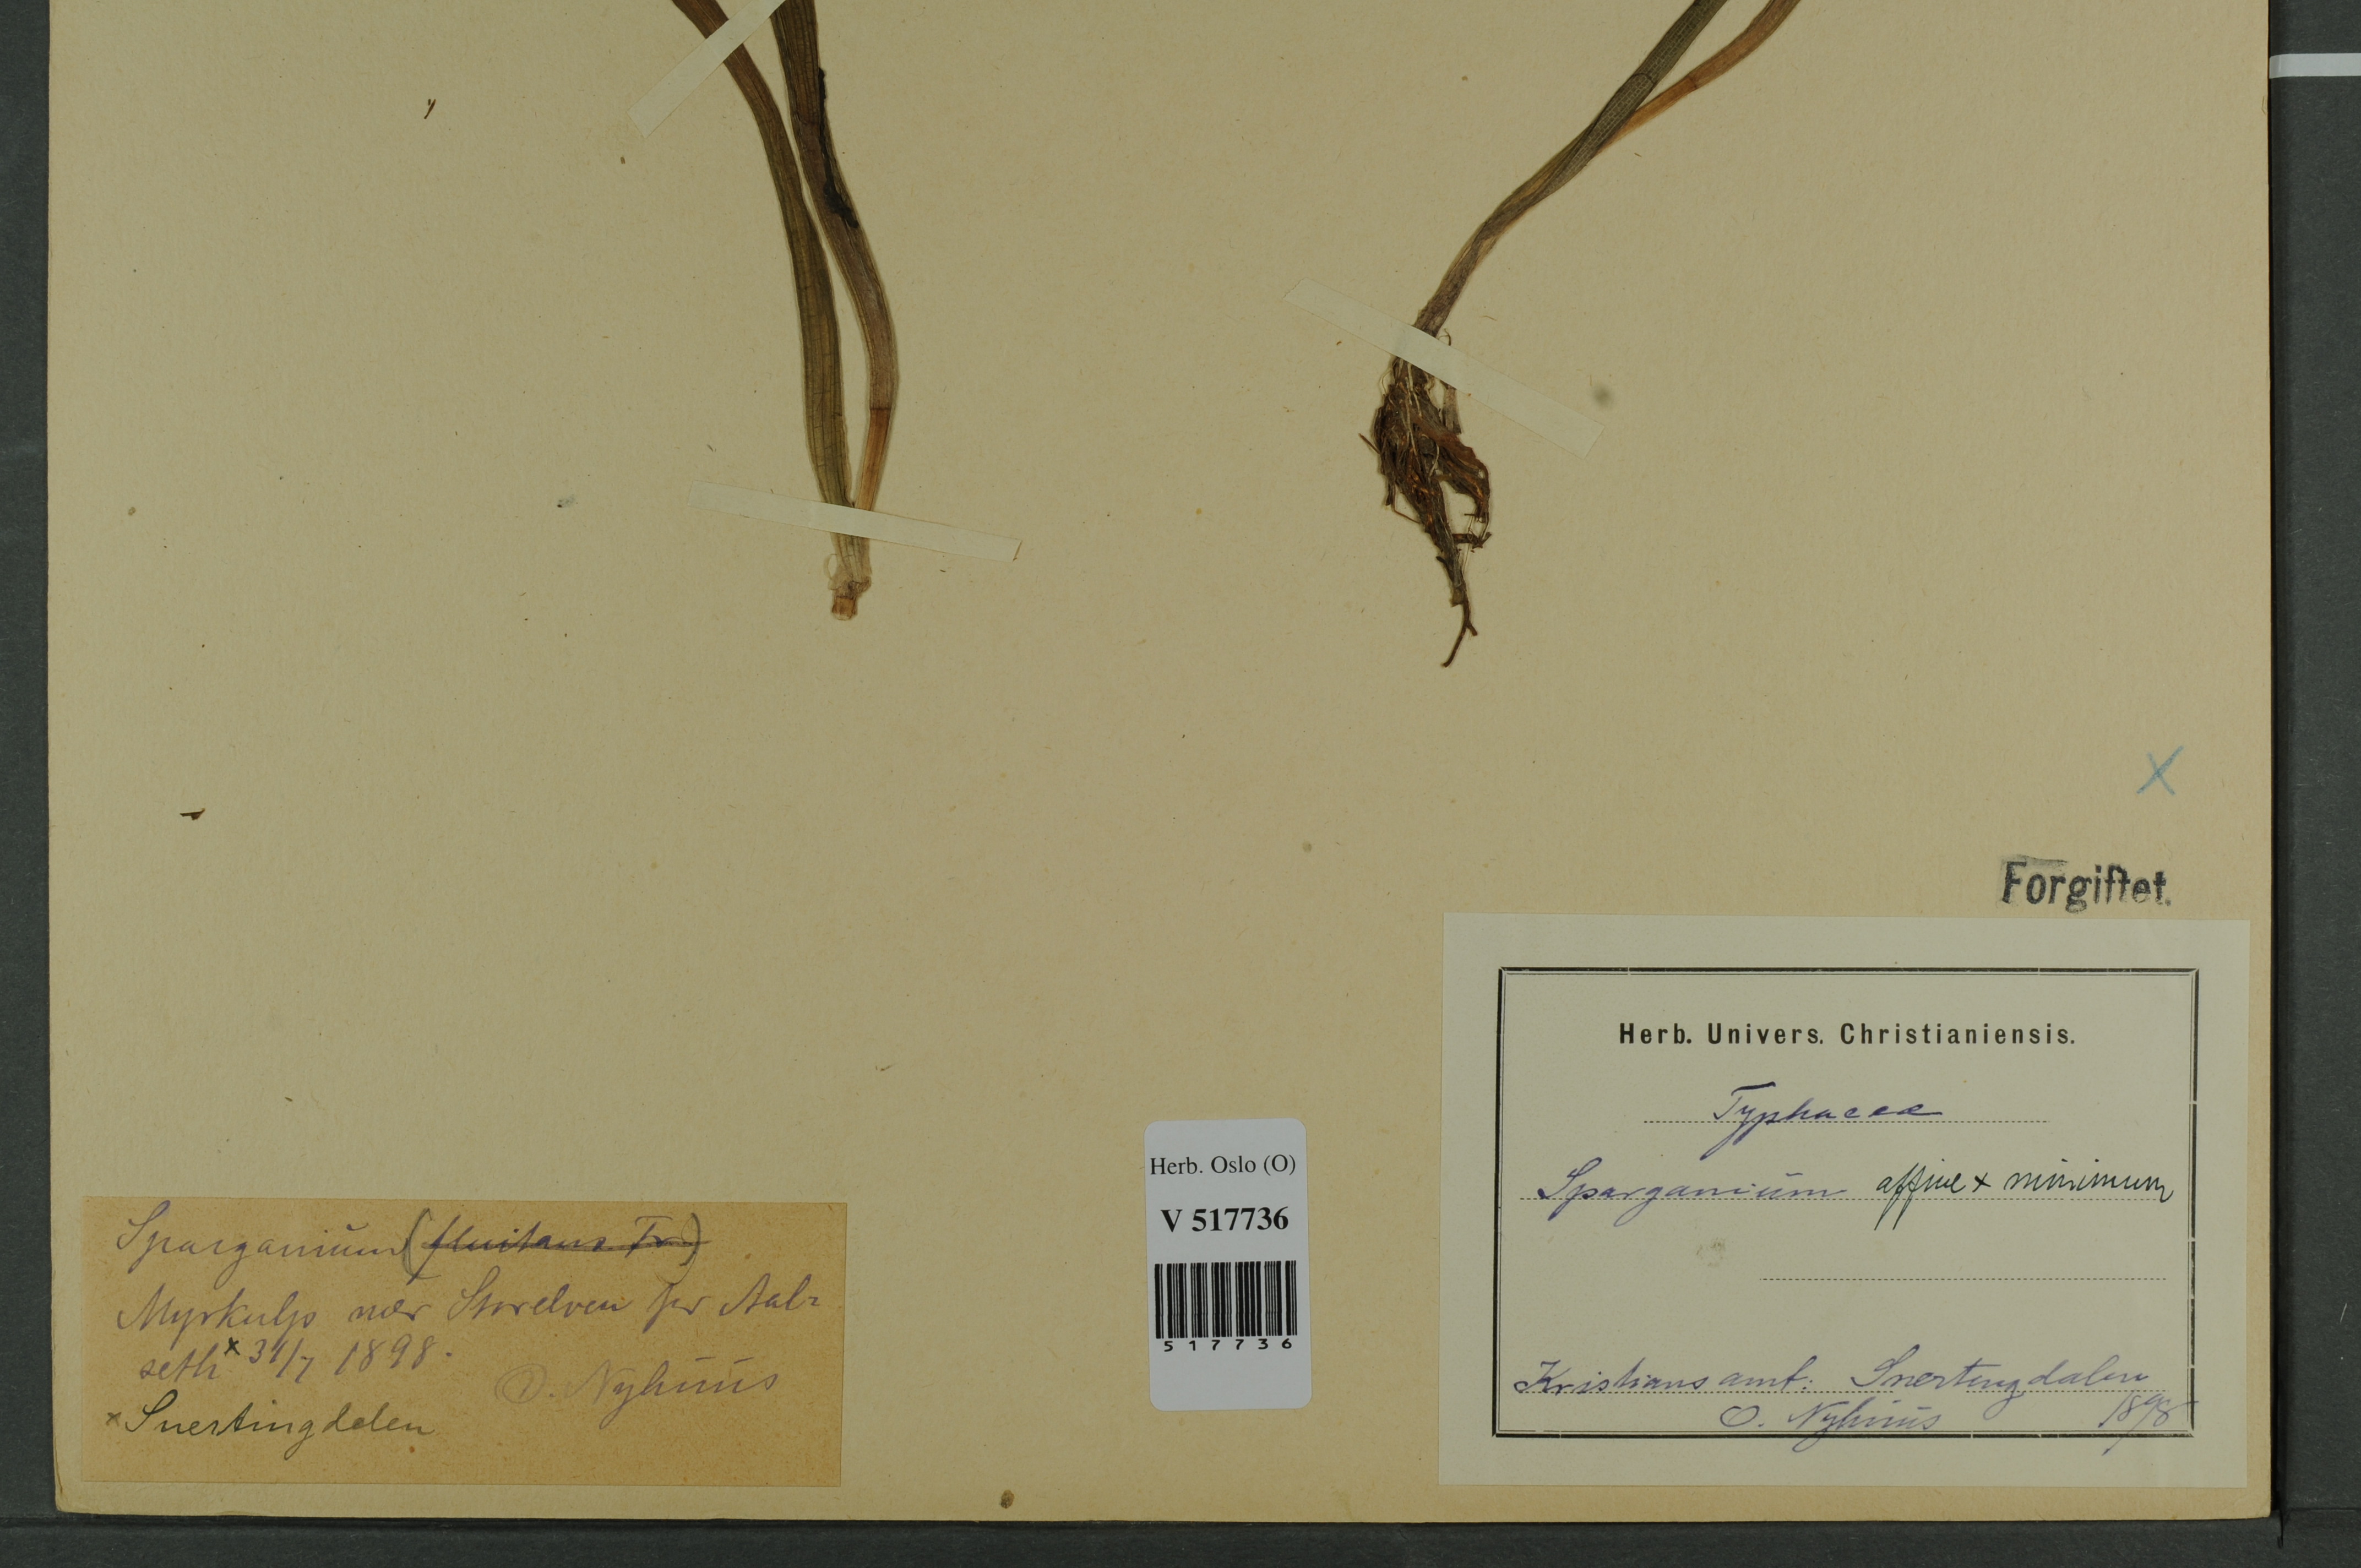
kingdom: Plantae
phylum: Tracheophyta
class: Liliopsida
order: Poales
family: Typhaceae
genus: Sparganium
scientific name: Sparganium
